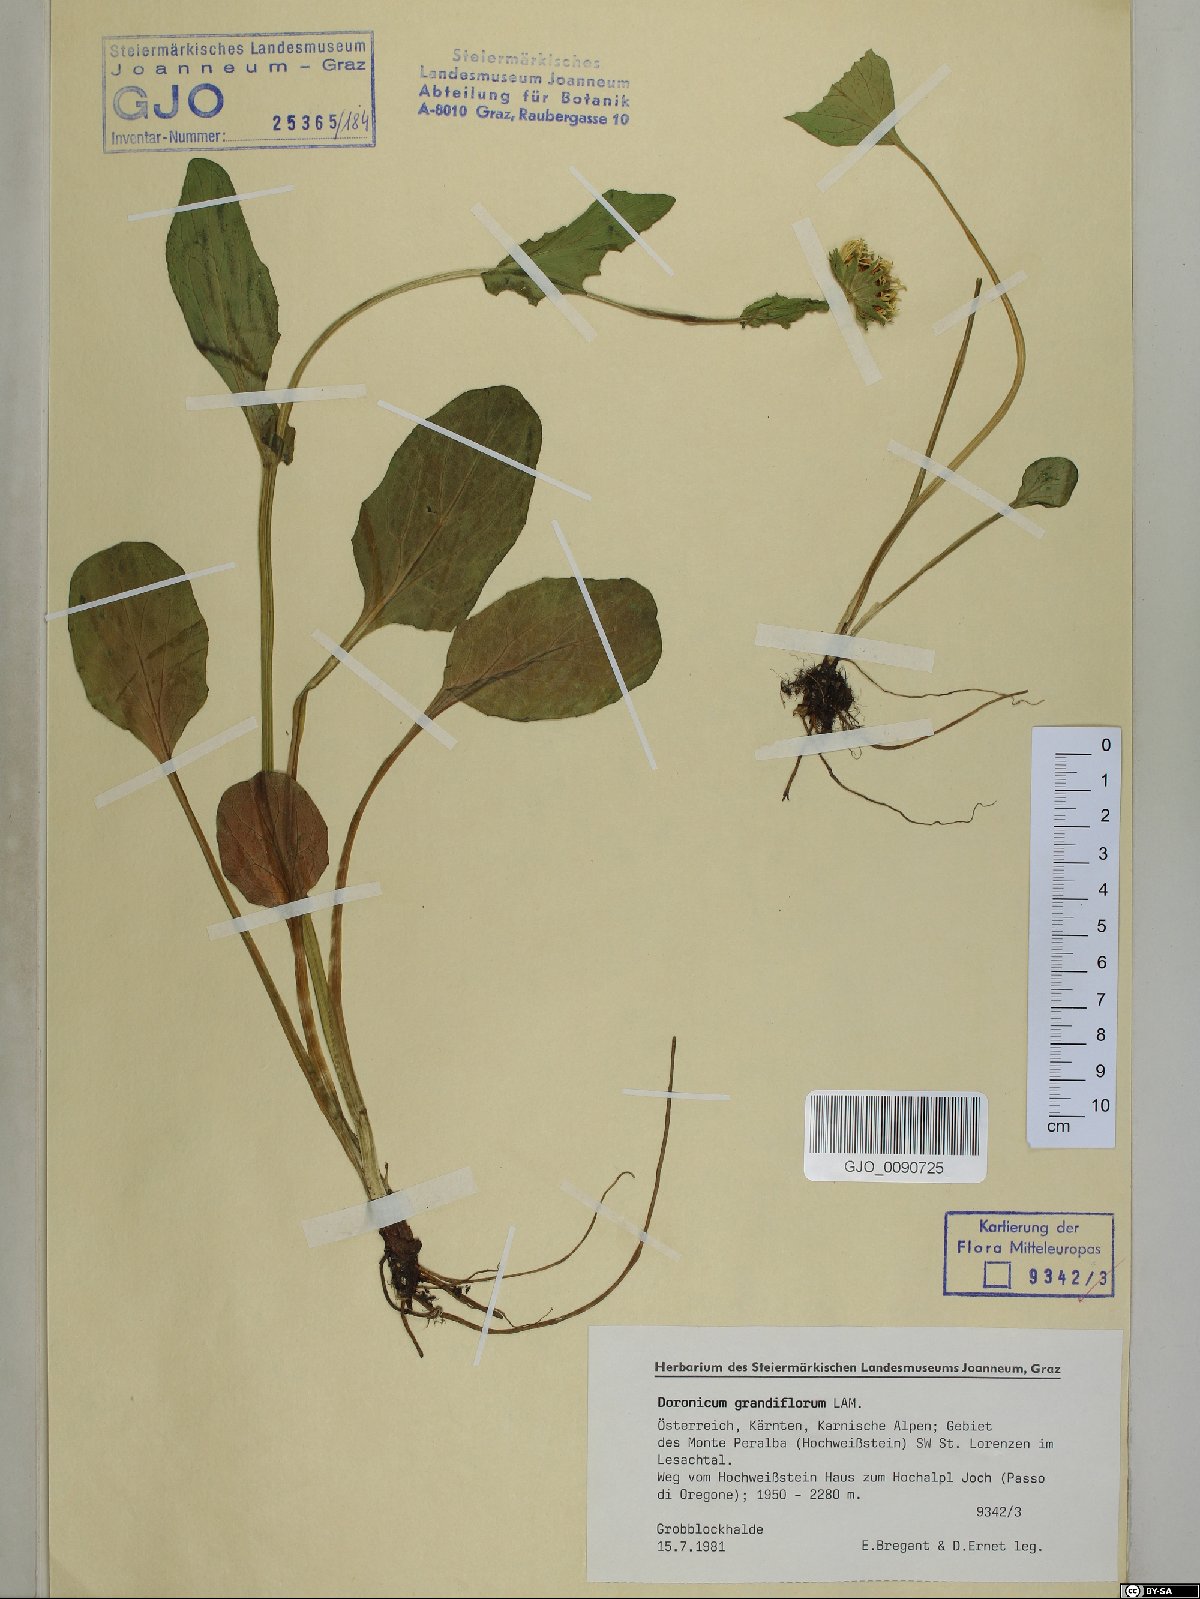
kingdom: Plantae
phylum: Tracheophyta
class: Magnoliopsida
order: Asterales
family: Asteraceae
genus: Doronicum
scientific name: Doronicum grandiflorum
